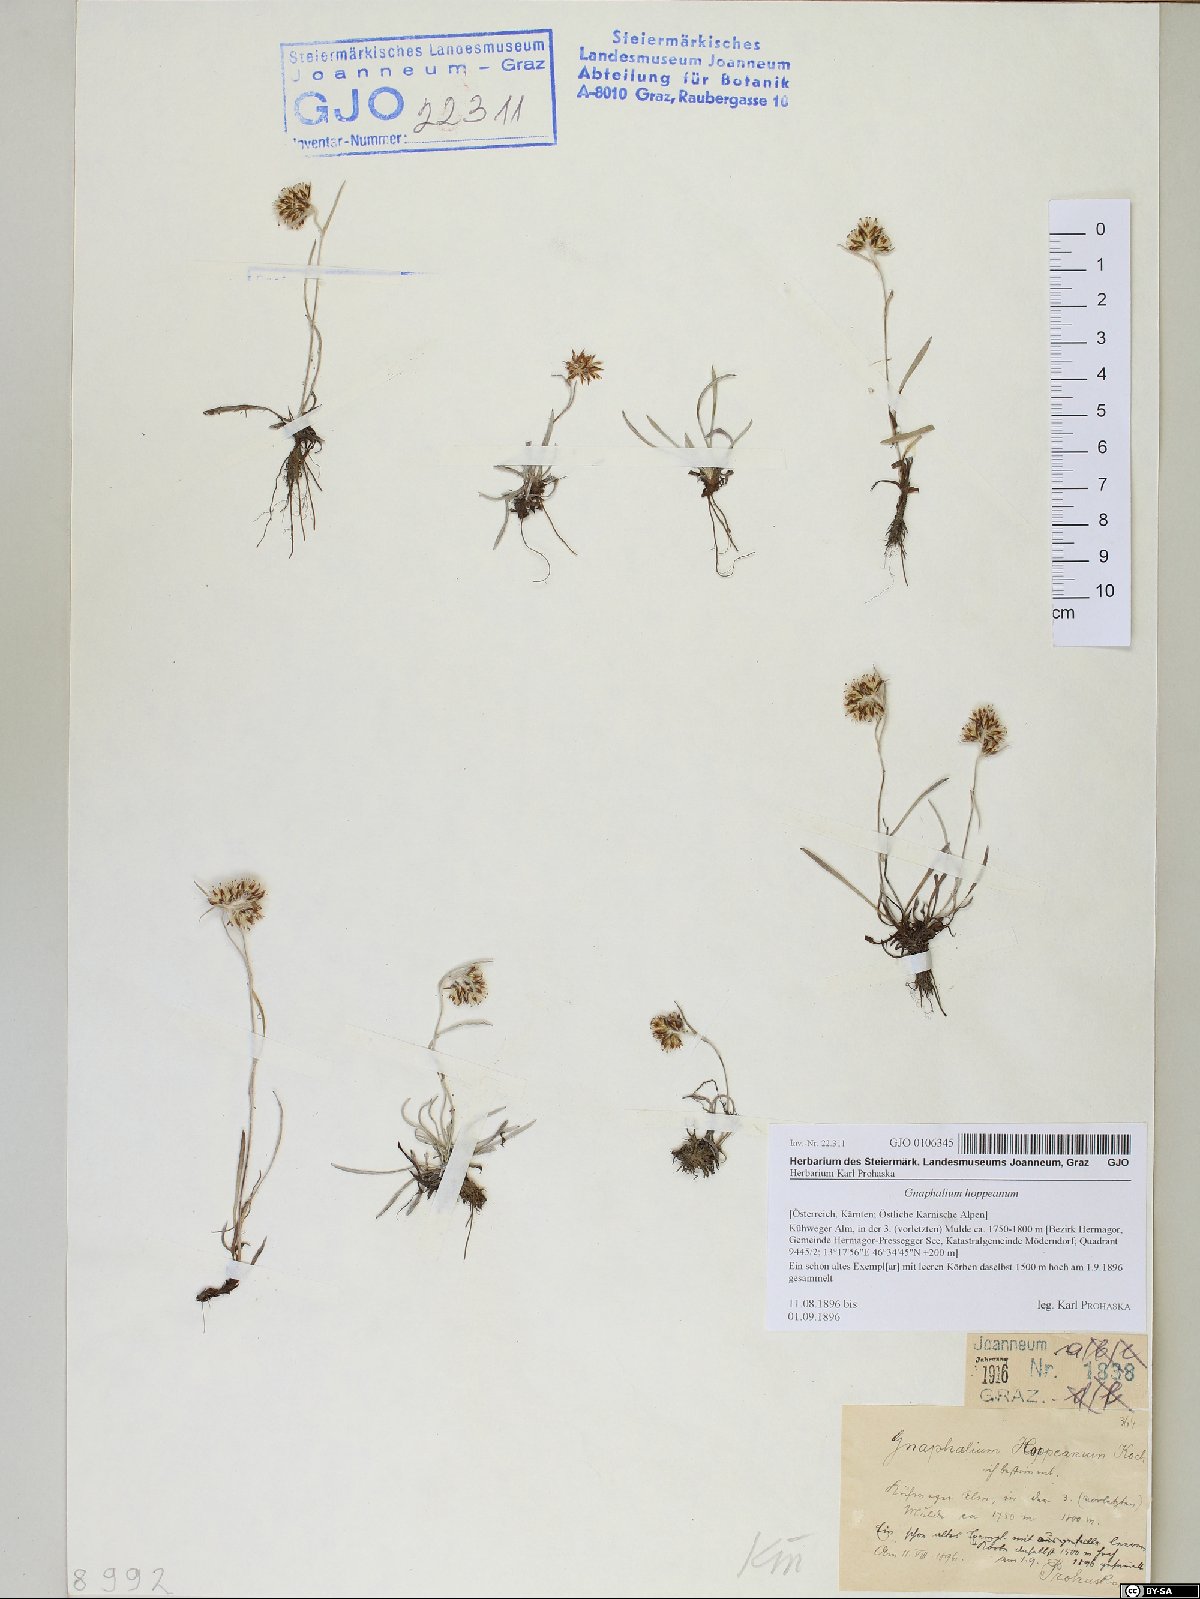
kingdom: Plantae
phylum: Tracheophyta
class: Magnoliopsida
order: Asterales
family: Asteraceae
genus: Omalotheca
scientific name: Omalotheca hoppeana
